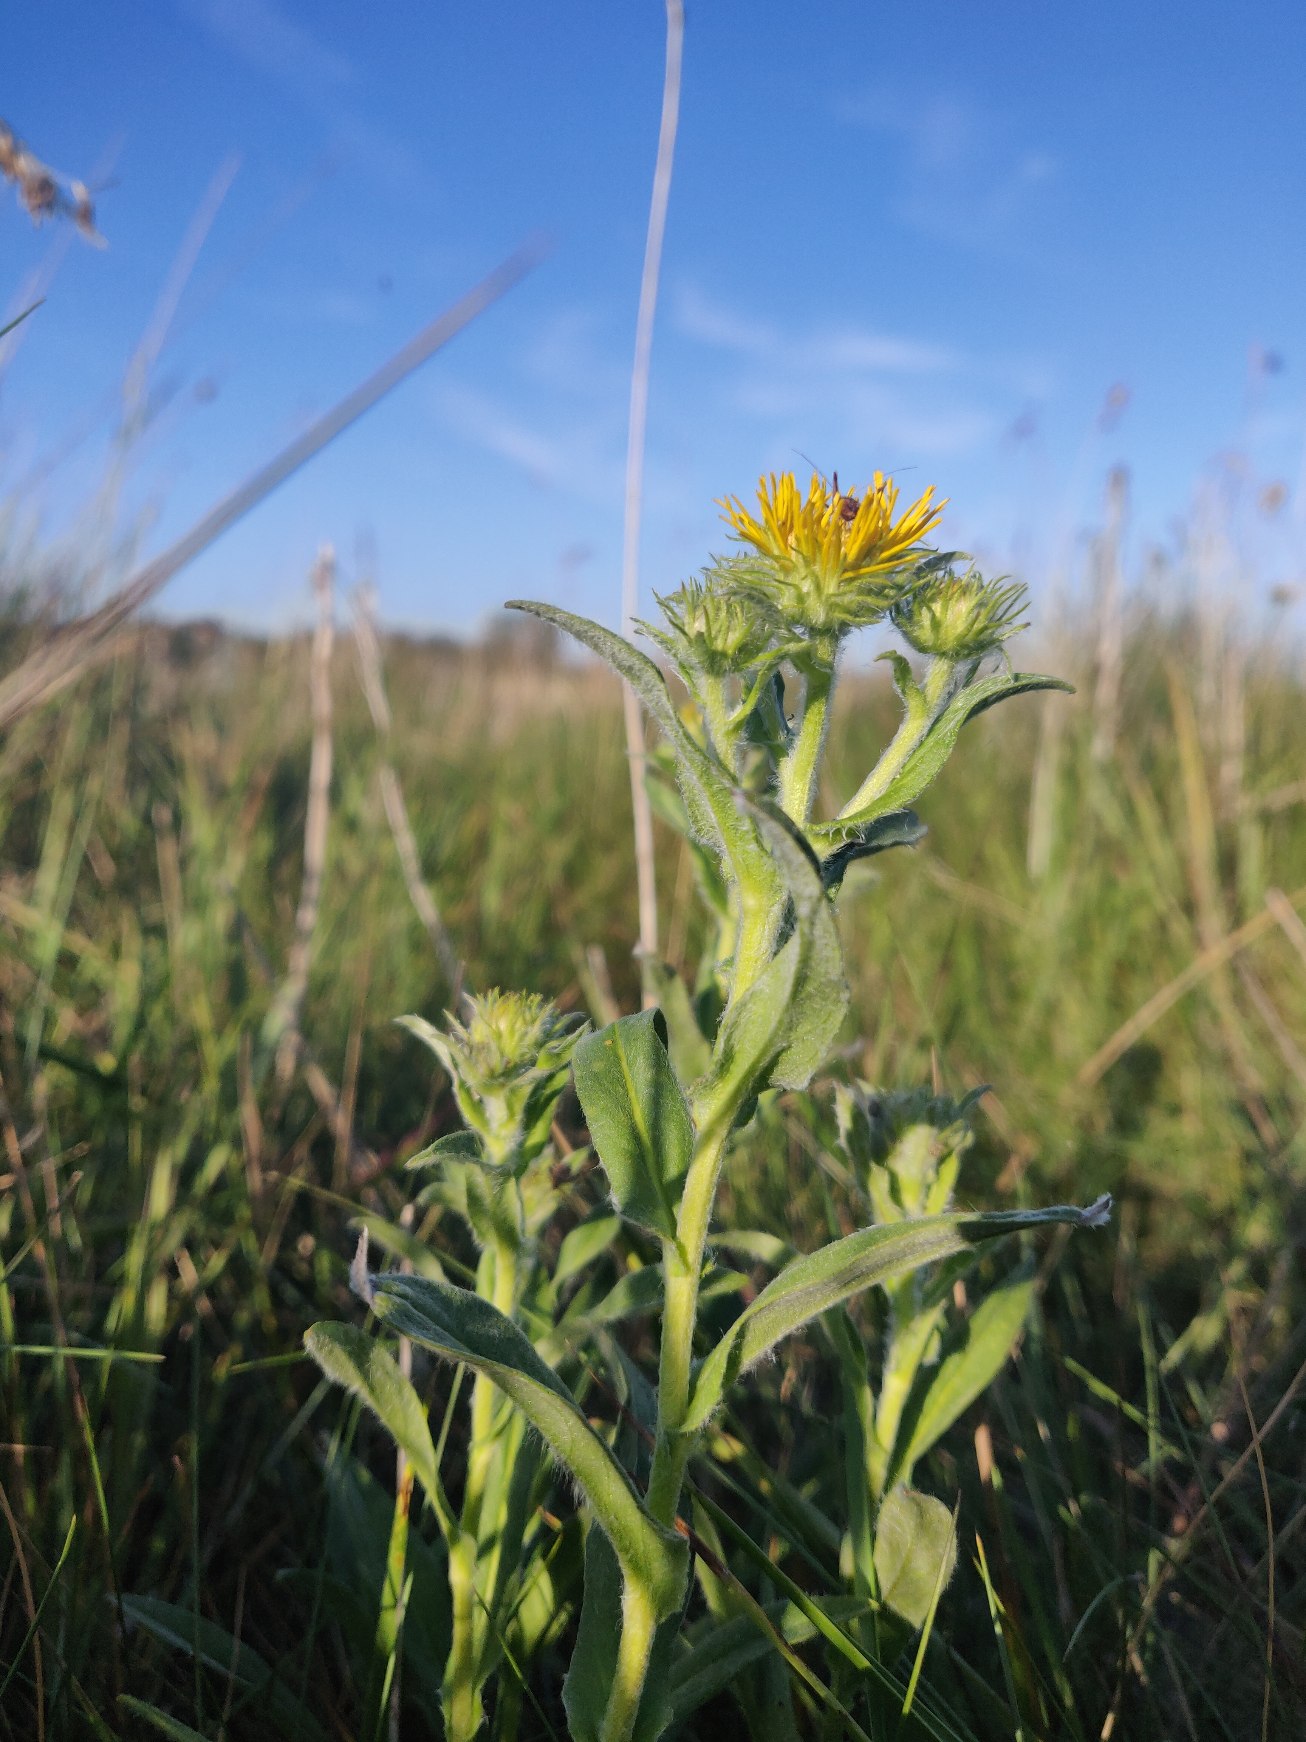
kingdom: Plantae
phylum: Tracheophyta
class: Magnoliopsida
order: Asterales
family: Asteraceae
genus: Pentanema
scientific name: Pentanema britannicum
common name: Soløje-alant
